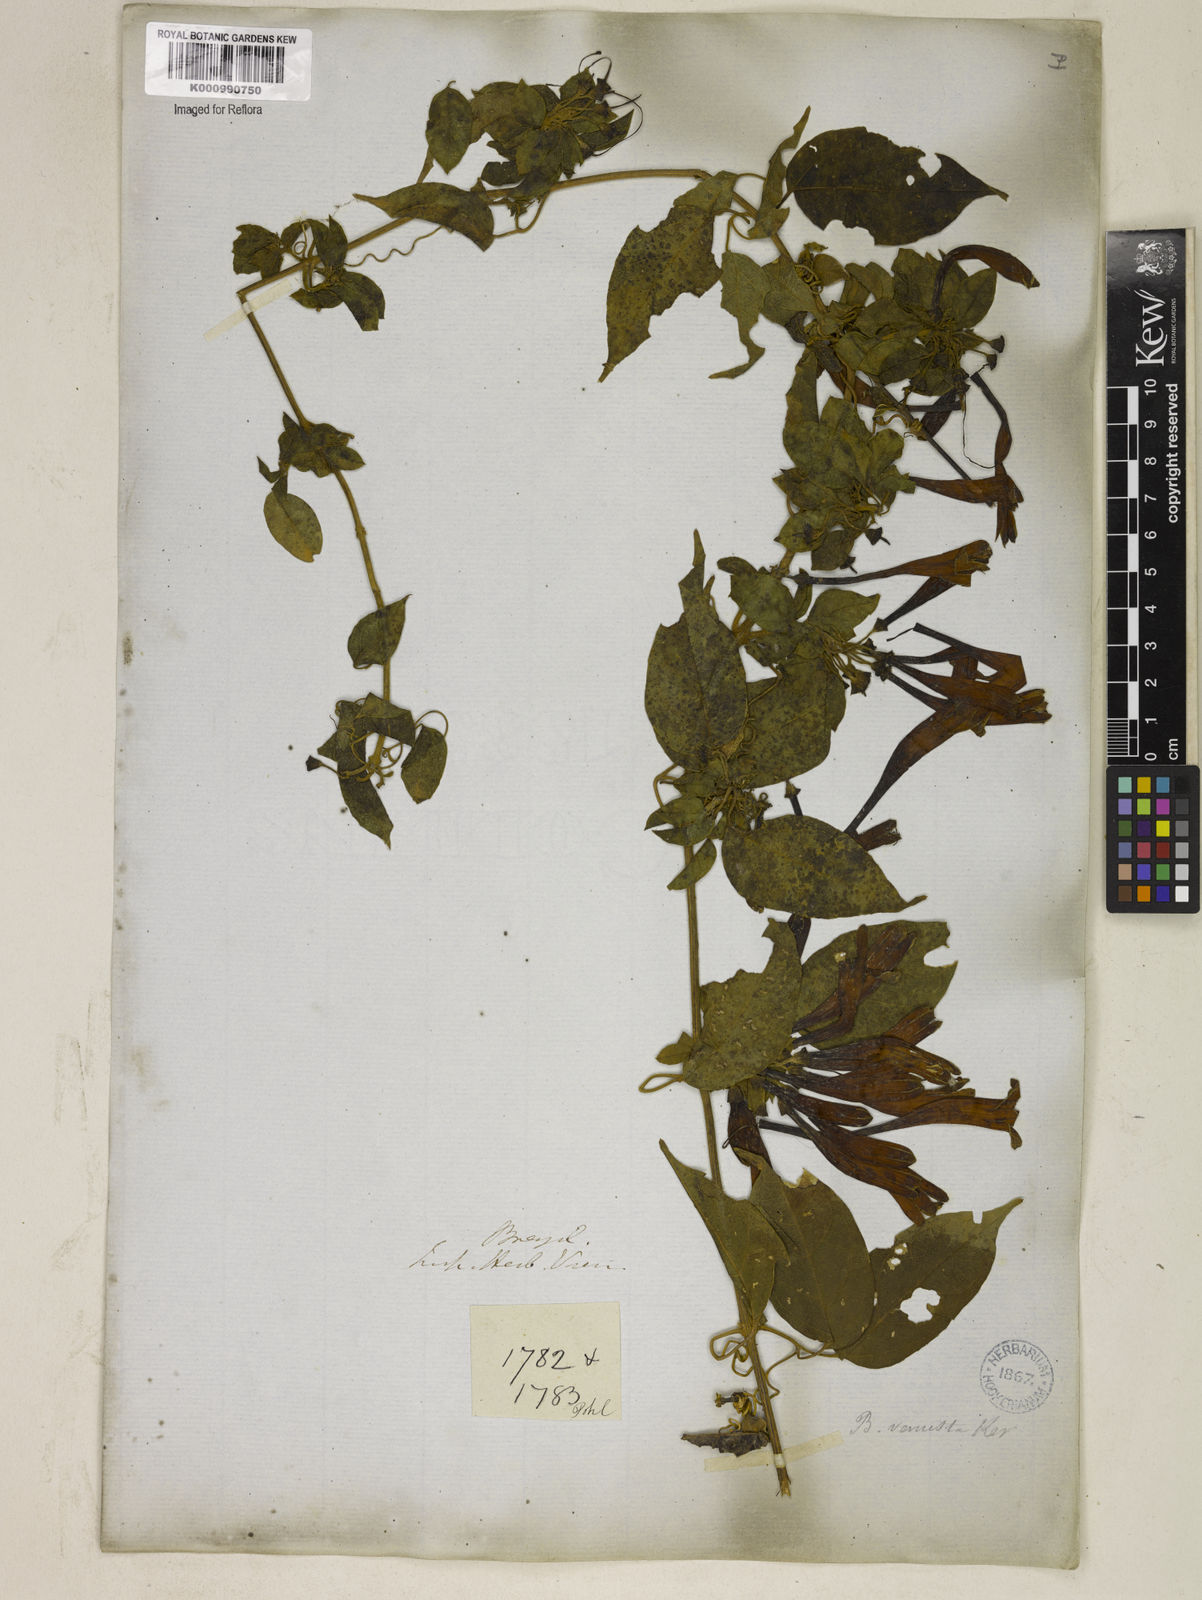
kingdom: Plantae
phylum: Tracheophyta
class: Magnoliopsida
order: Lamiales
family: Bignoniaceae
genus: Pyrostegia
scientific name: Pyrostegia venusta
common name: Flamevine
